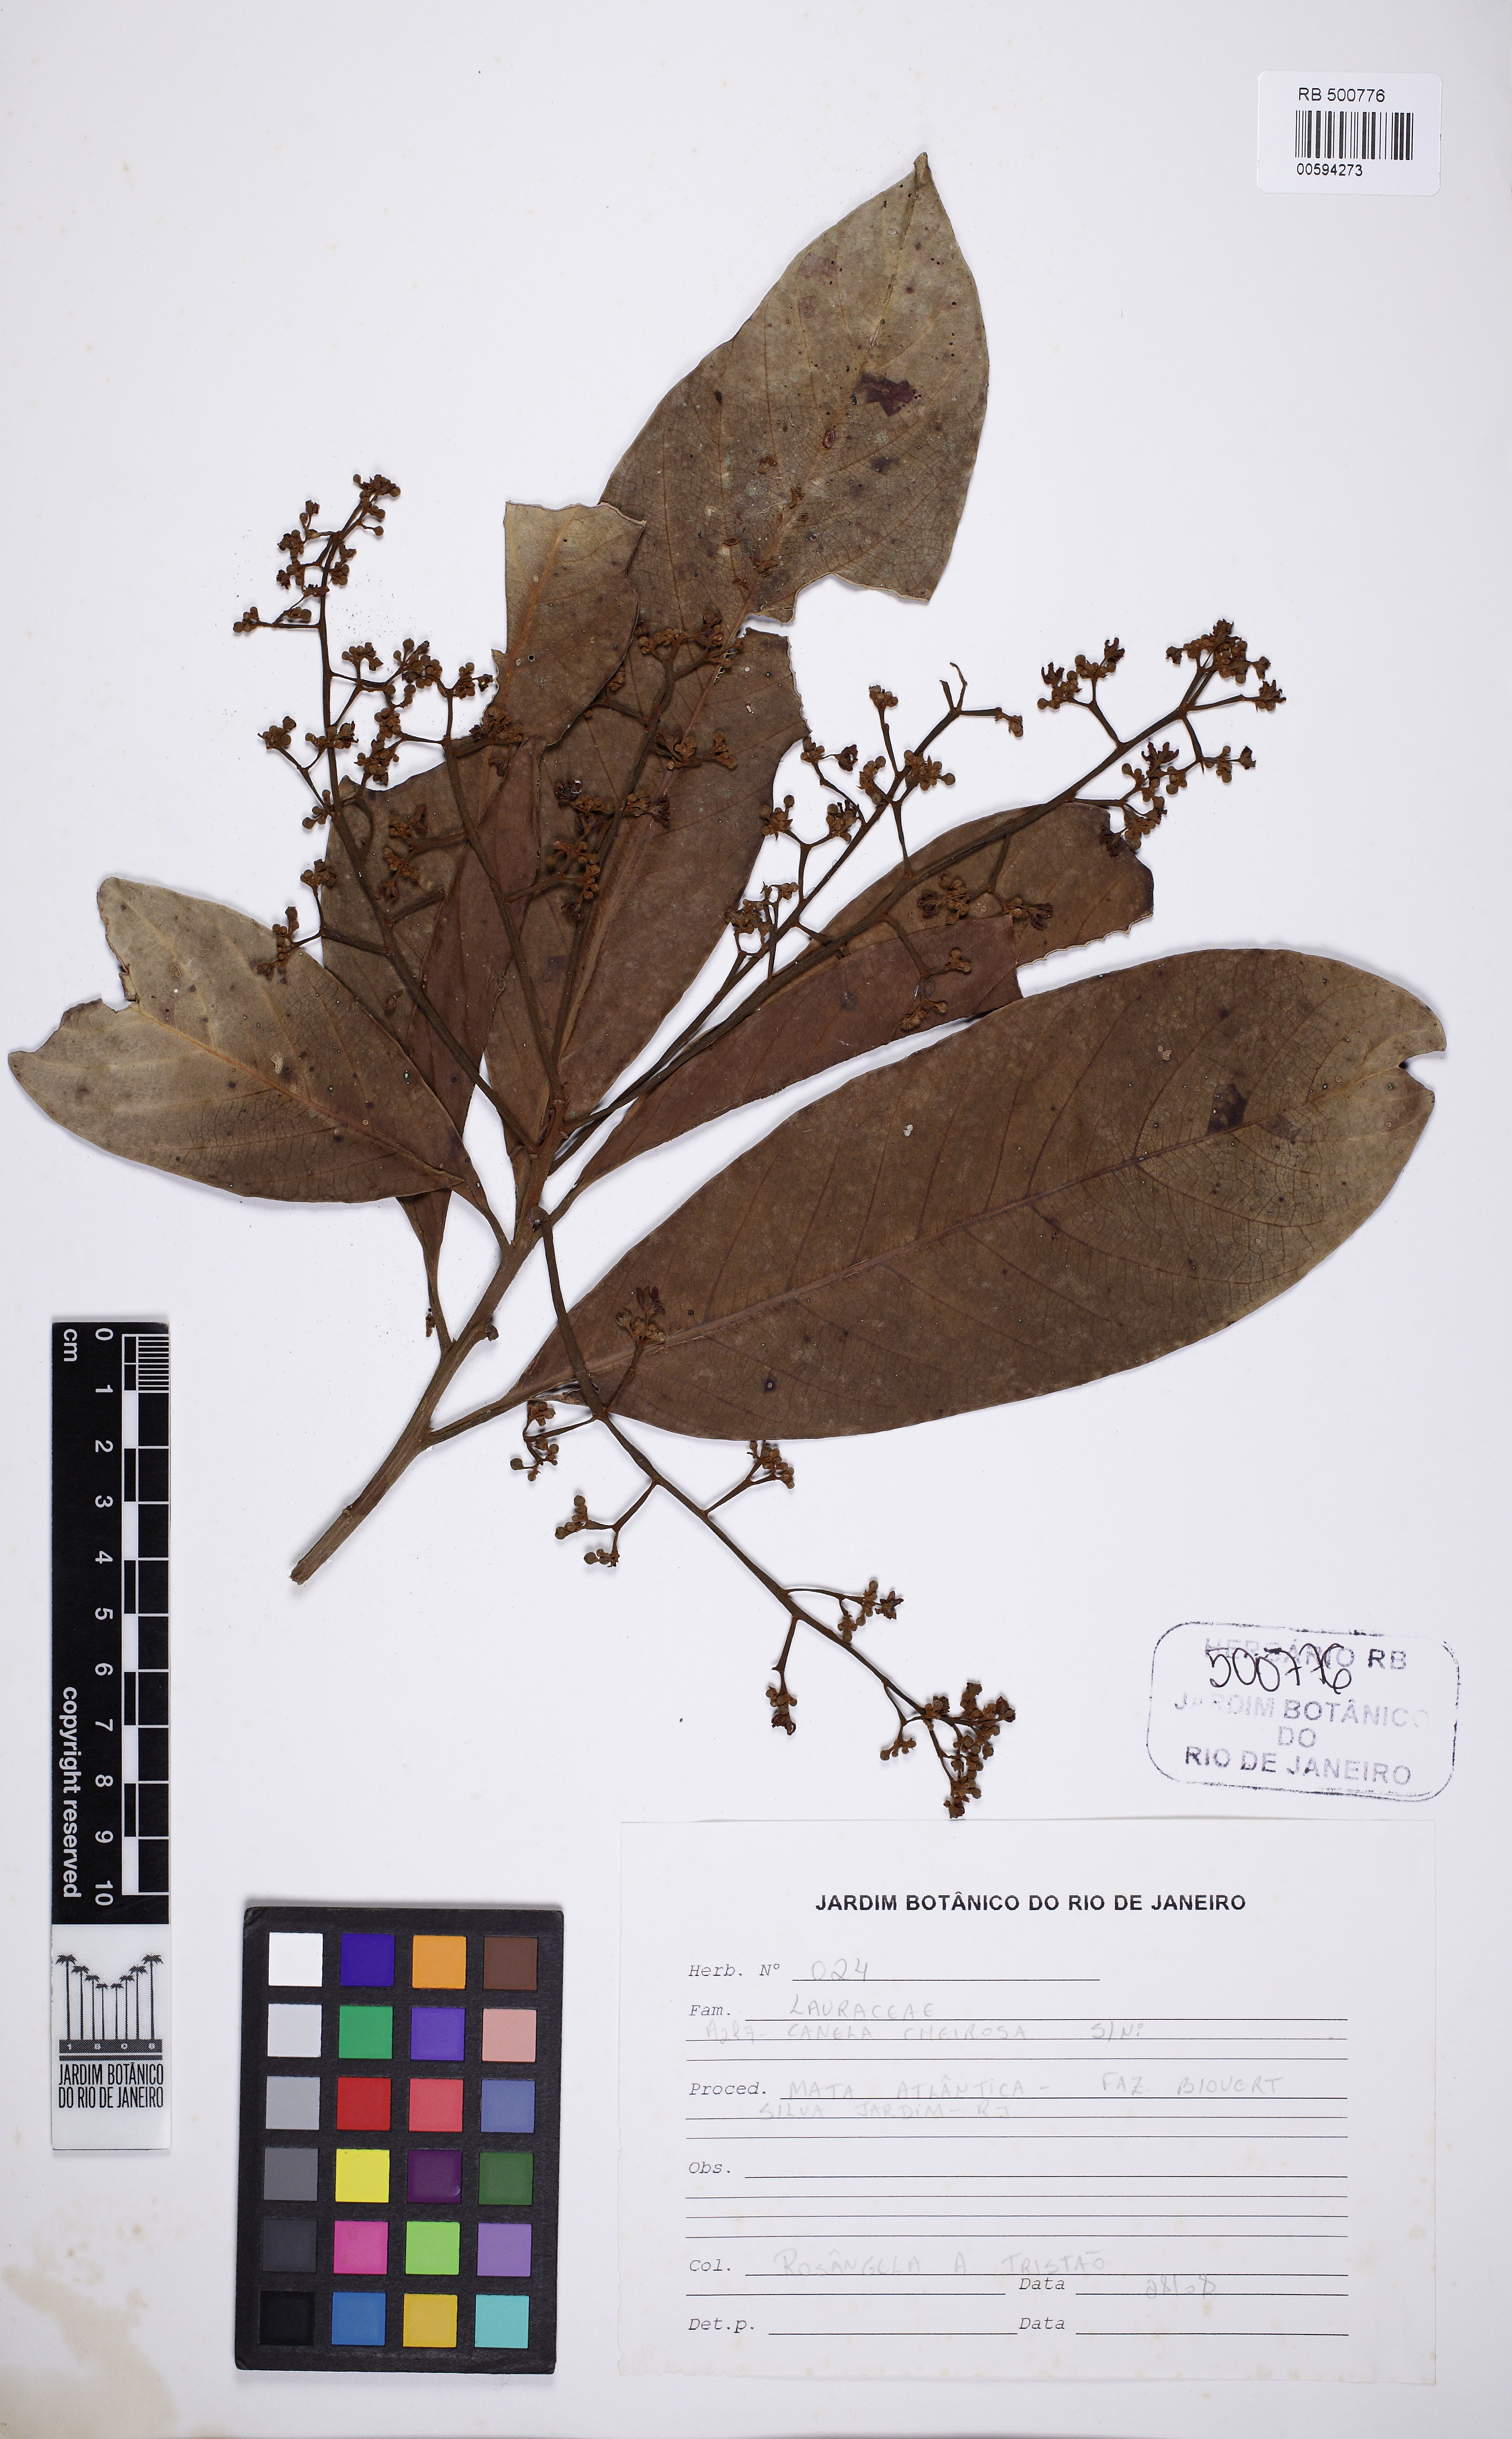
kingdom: Plantae
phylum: Tracheophyta
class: Magnoliopsida
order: Laurales
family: Lauraceae
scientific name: Lauraceae
